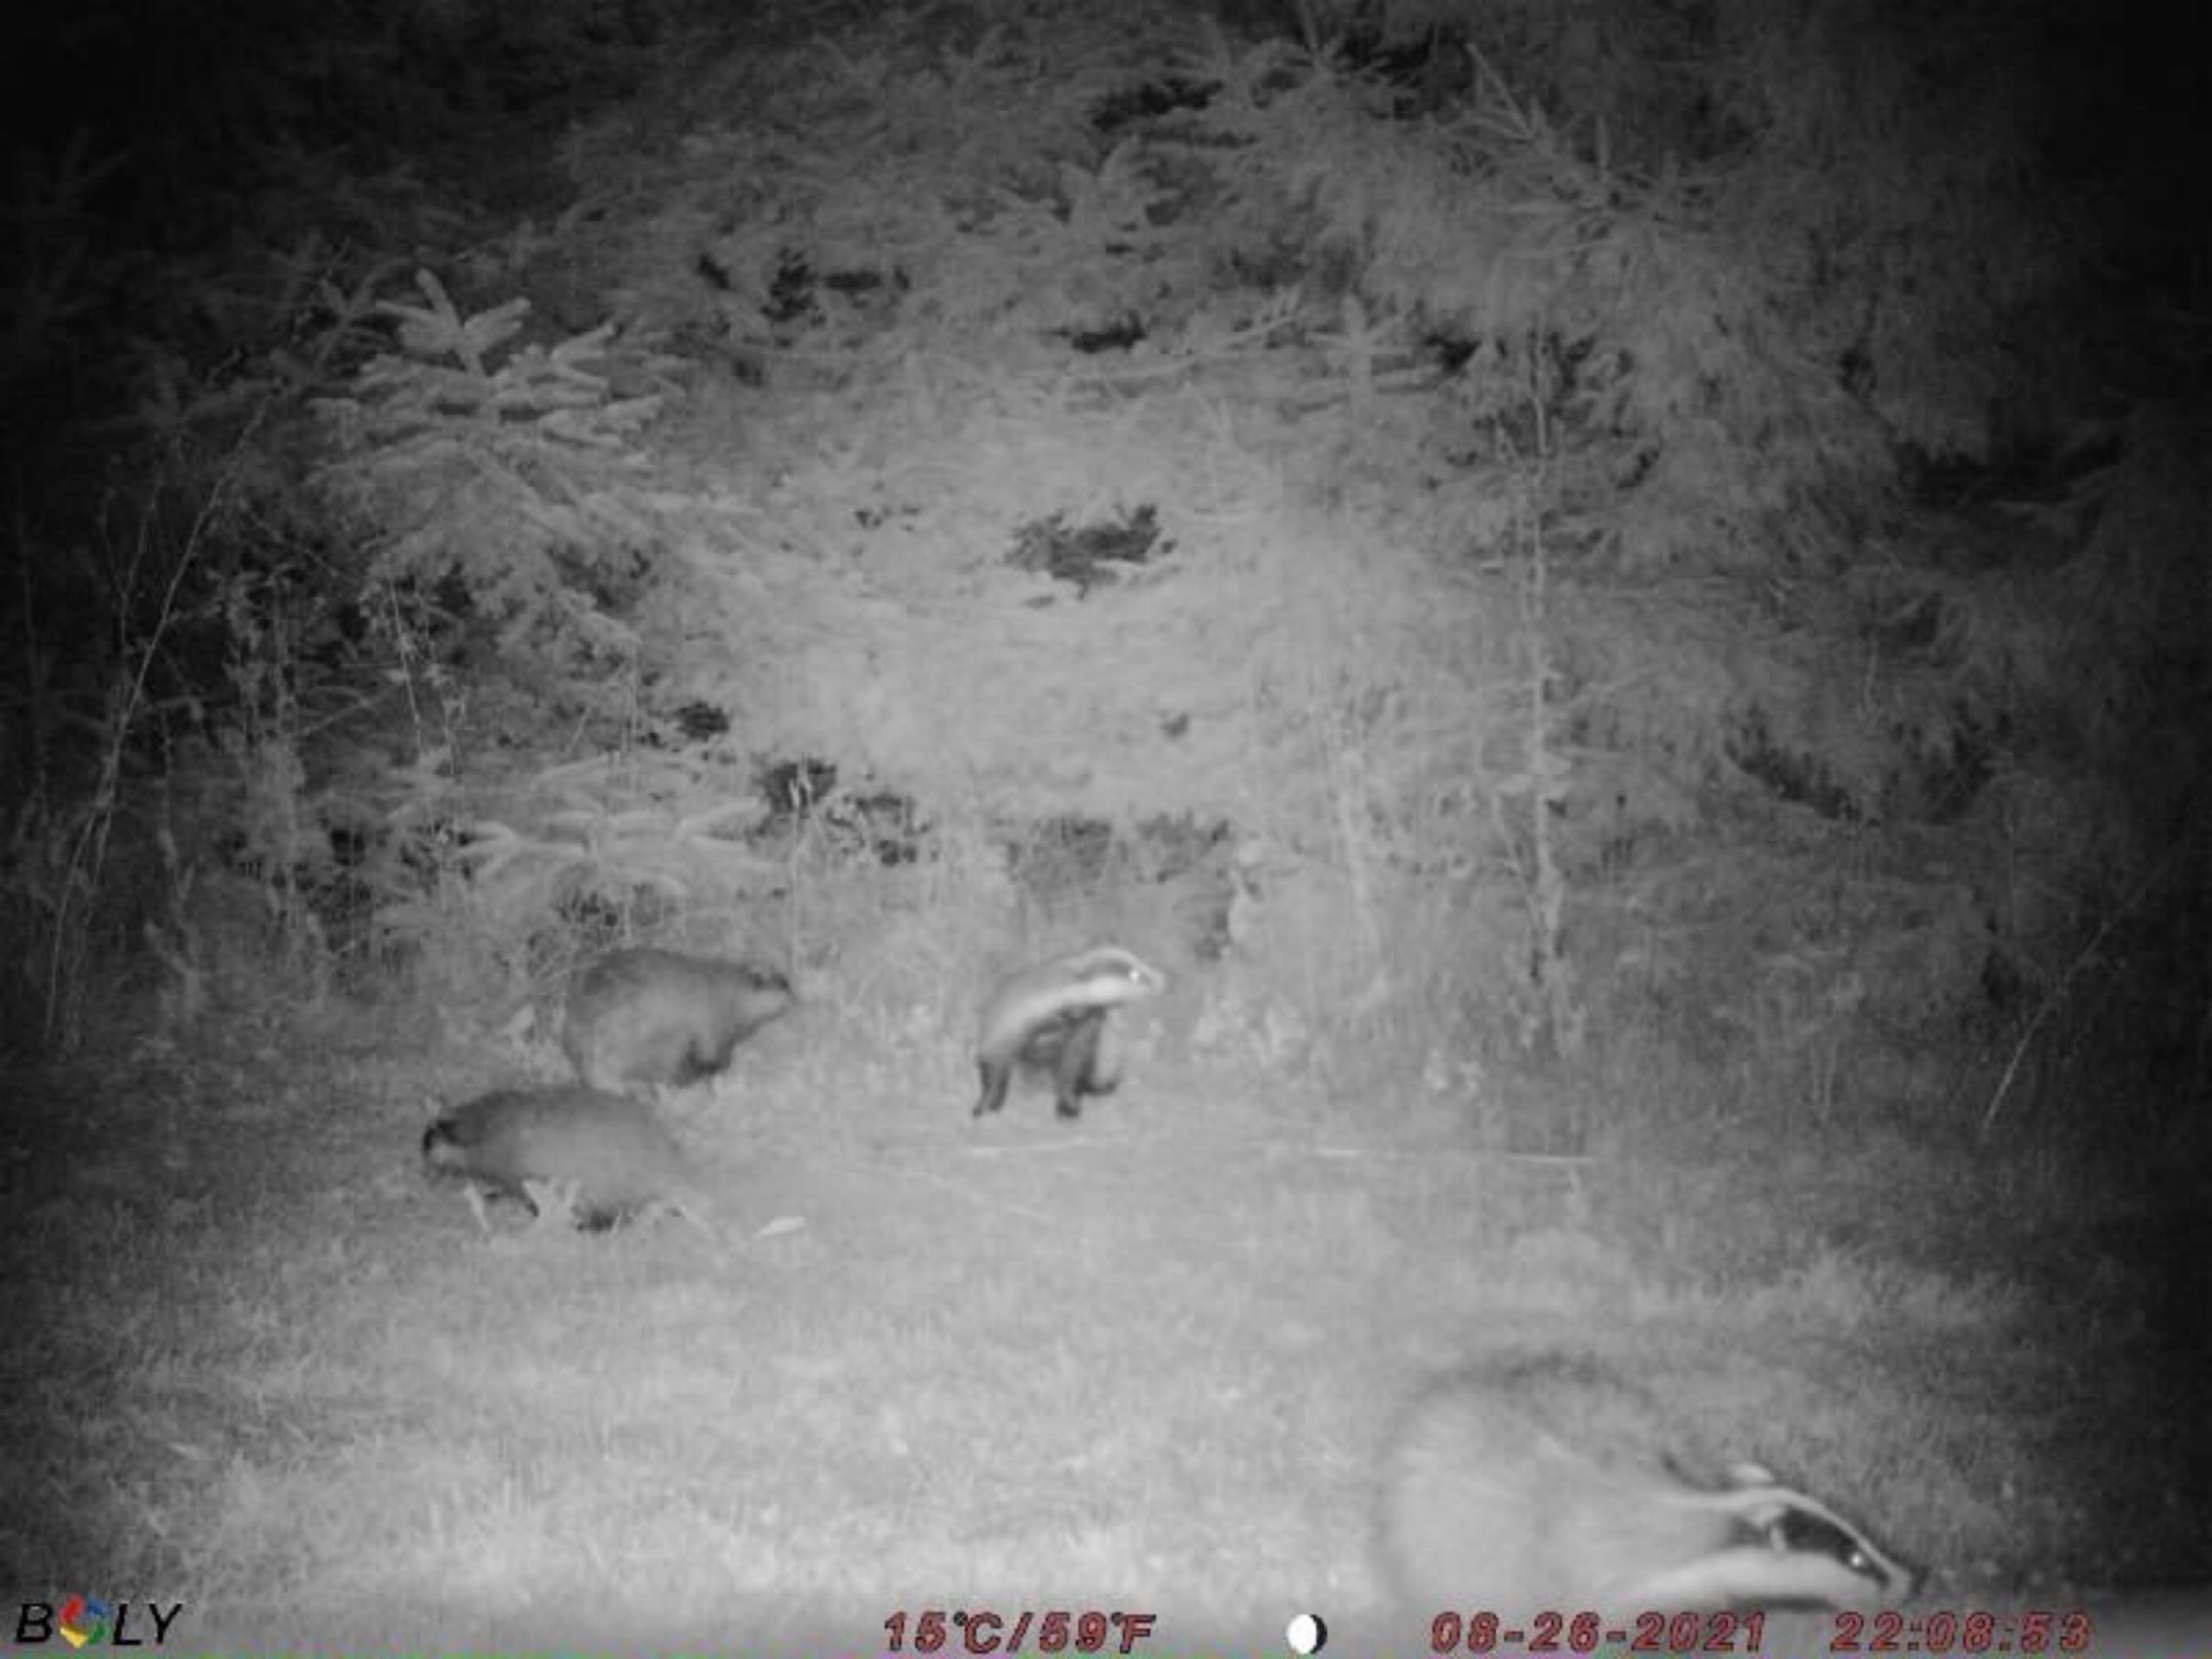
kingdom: Animalia
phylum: Chordata
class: Mammalia
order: Carnivora
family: Mustelidae
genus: Meles
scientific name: Meles meles
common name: Grævling
